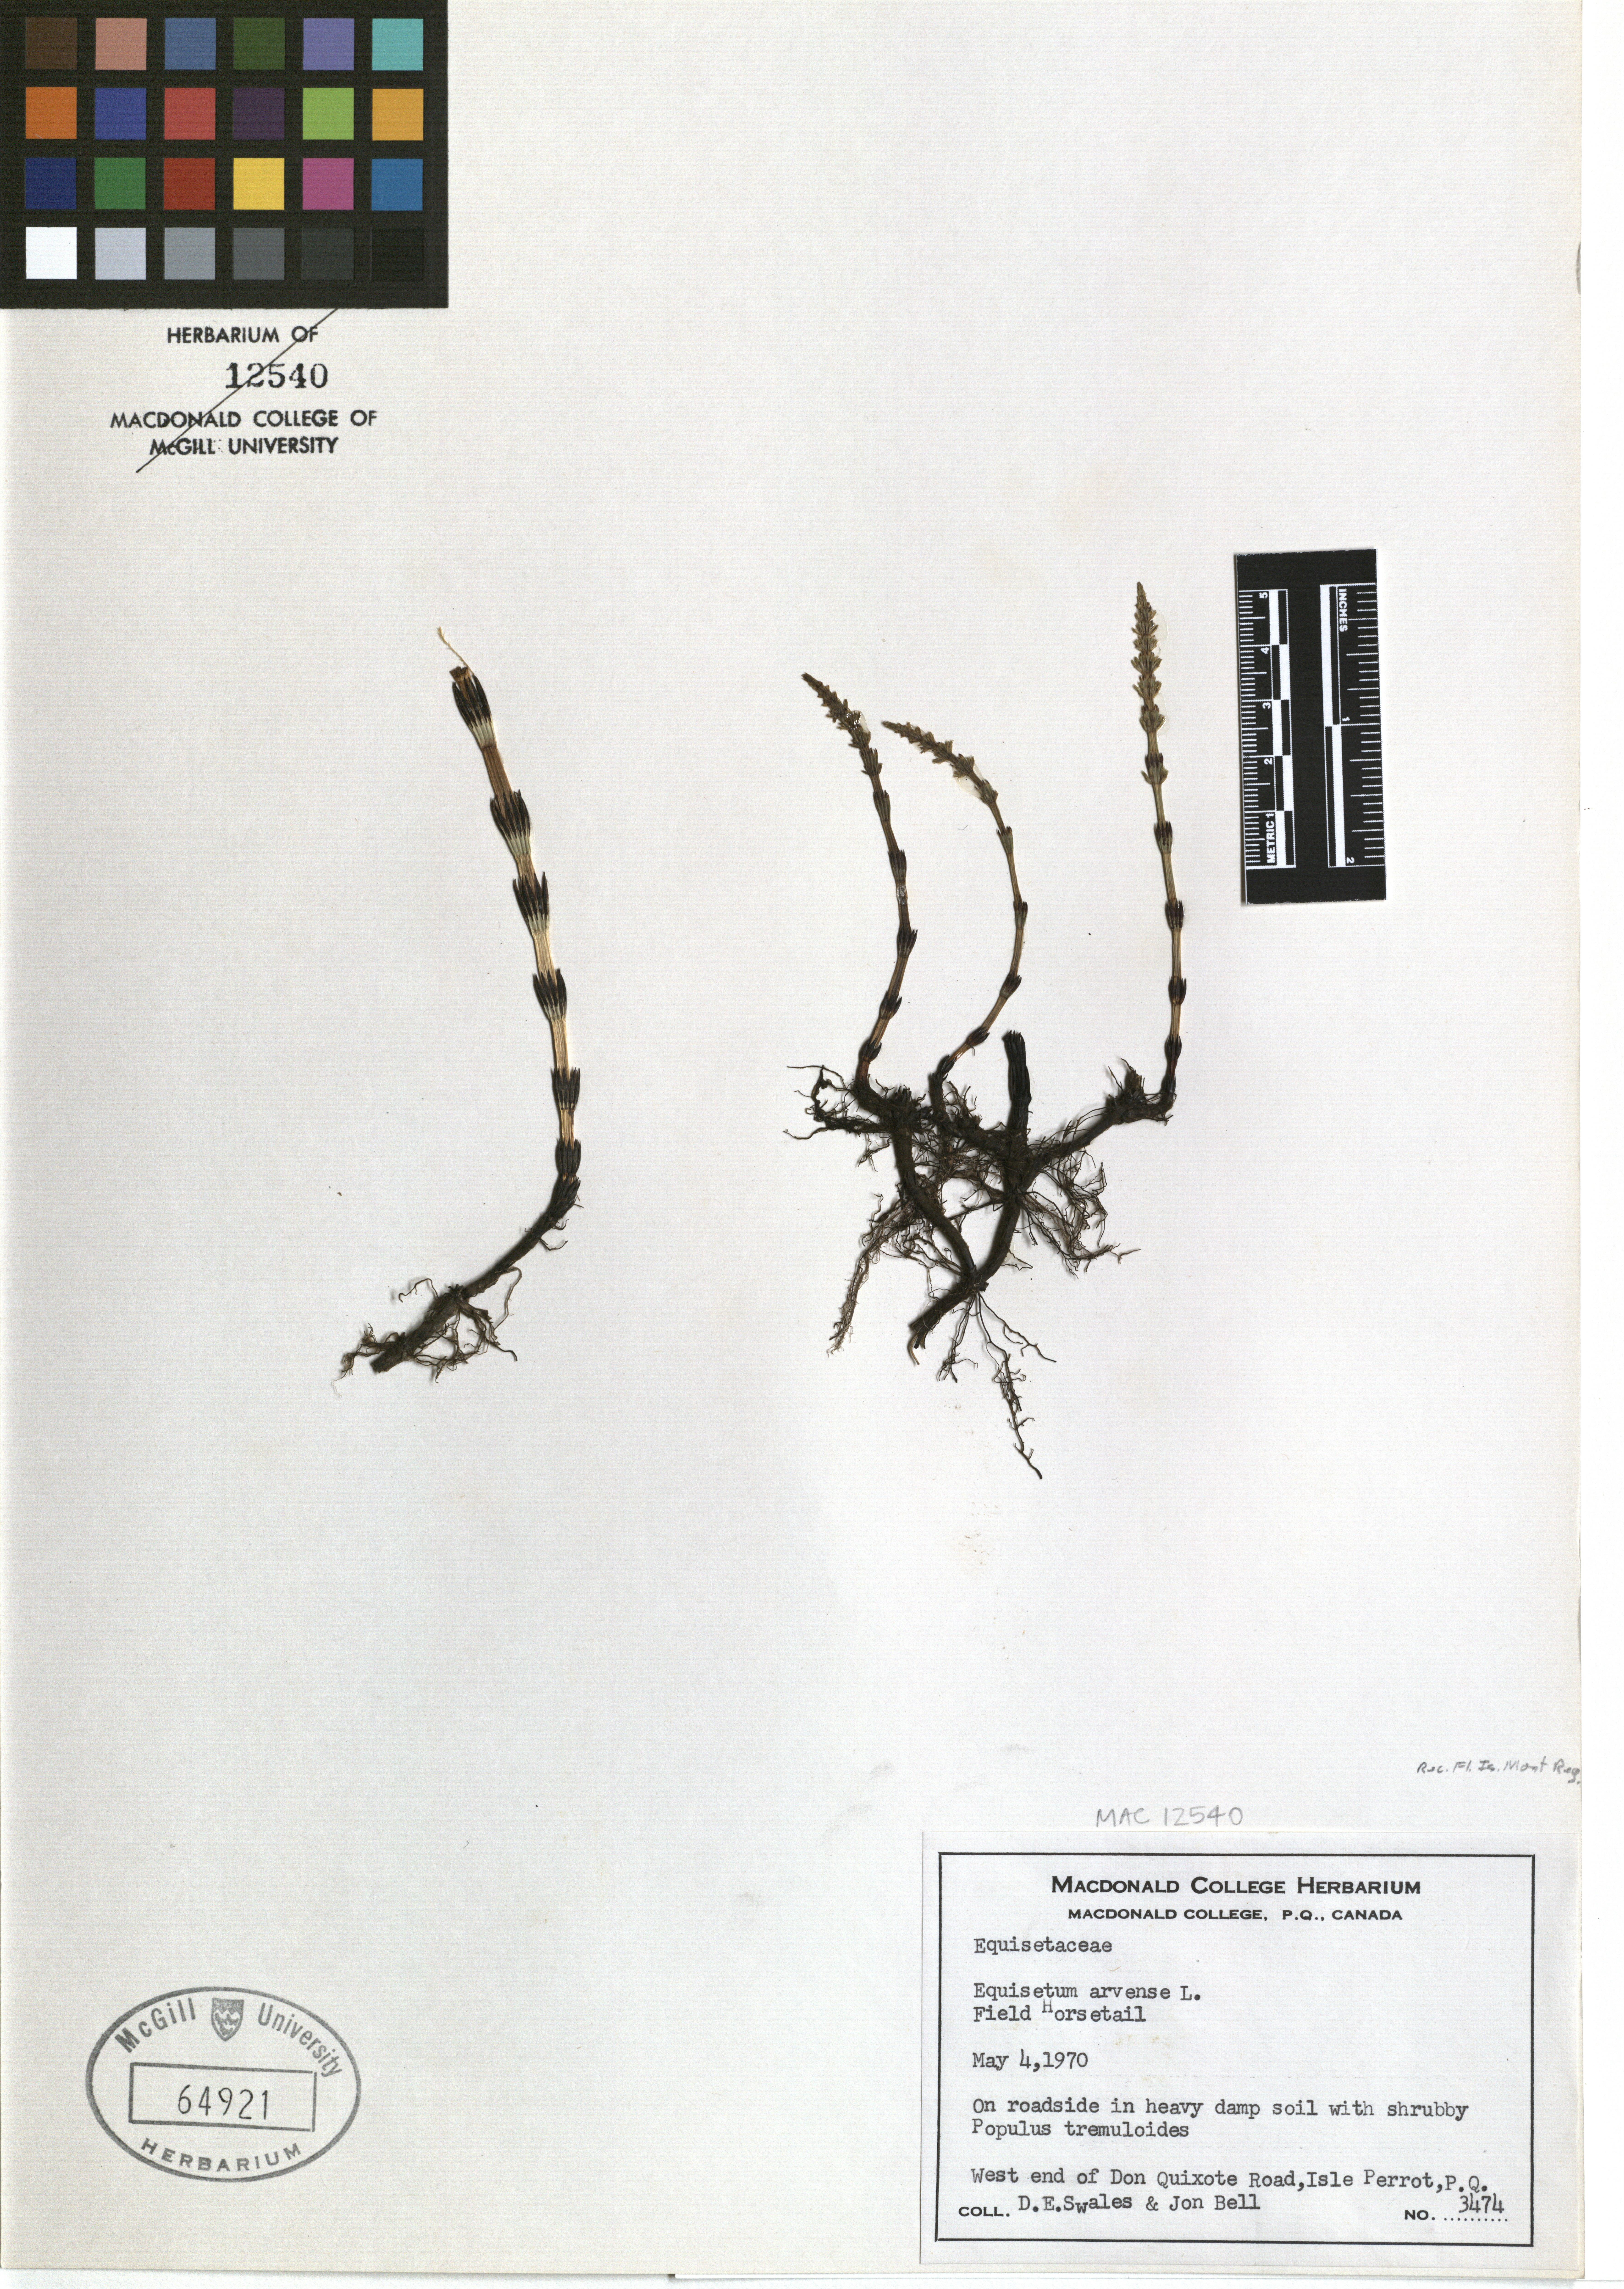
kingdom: Plantae
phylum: Tracheophyta
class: Polypodiopsida
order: Equisetales
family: Equisetaceae
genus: Equisetum
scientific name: Equisetum arvense
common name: Field horsetail
